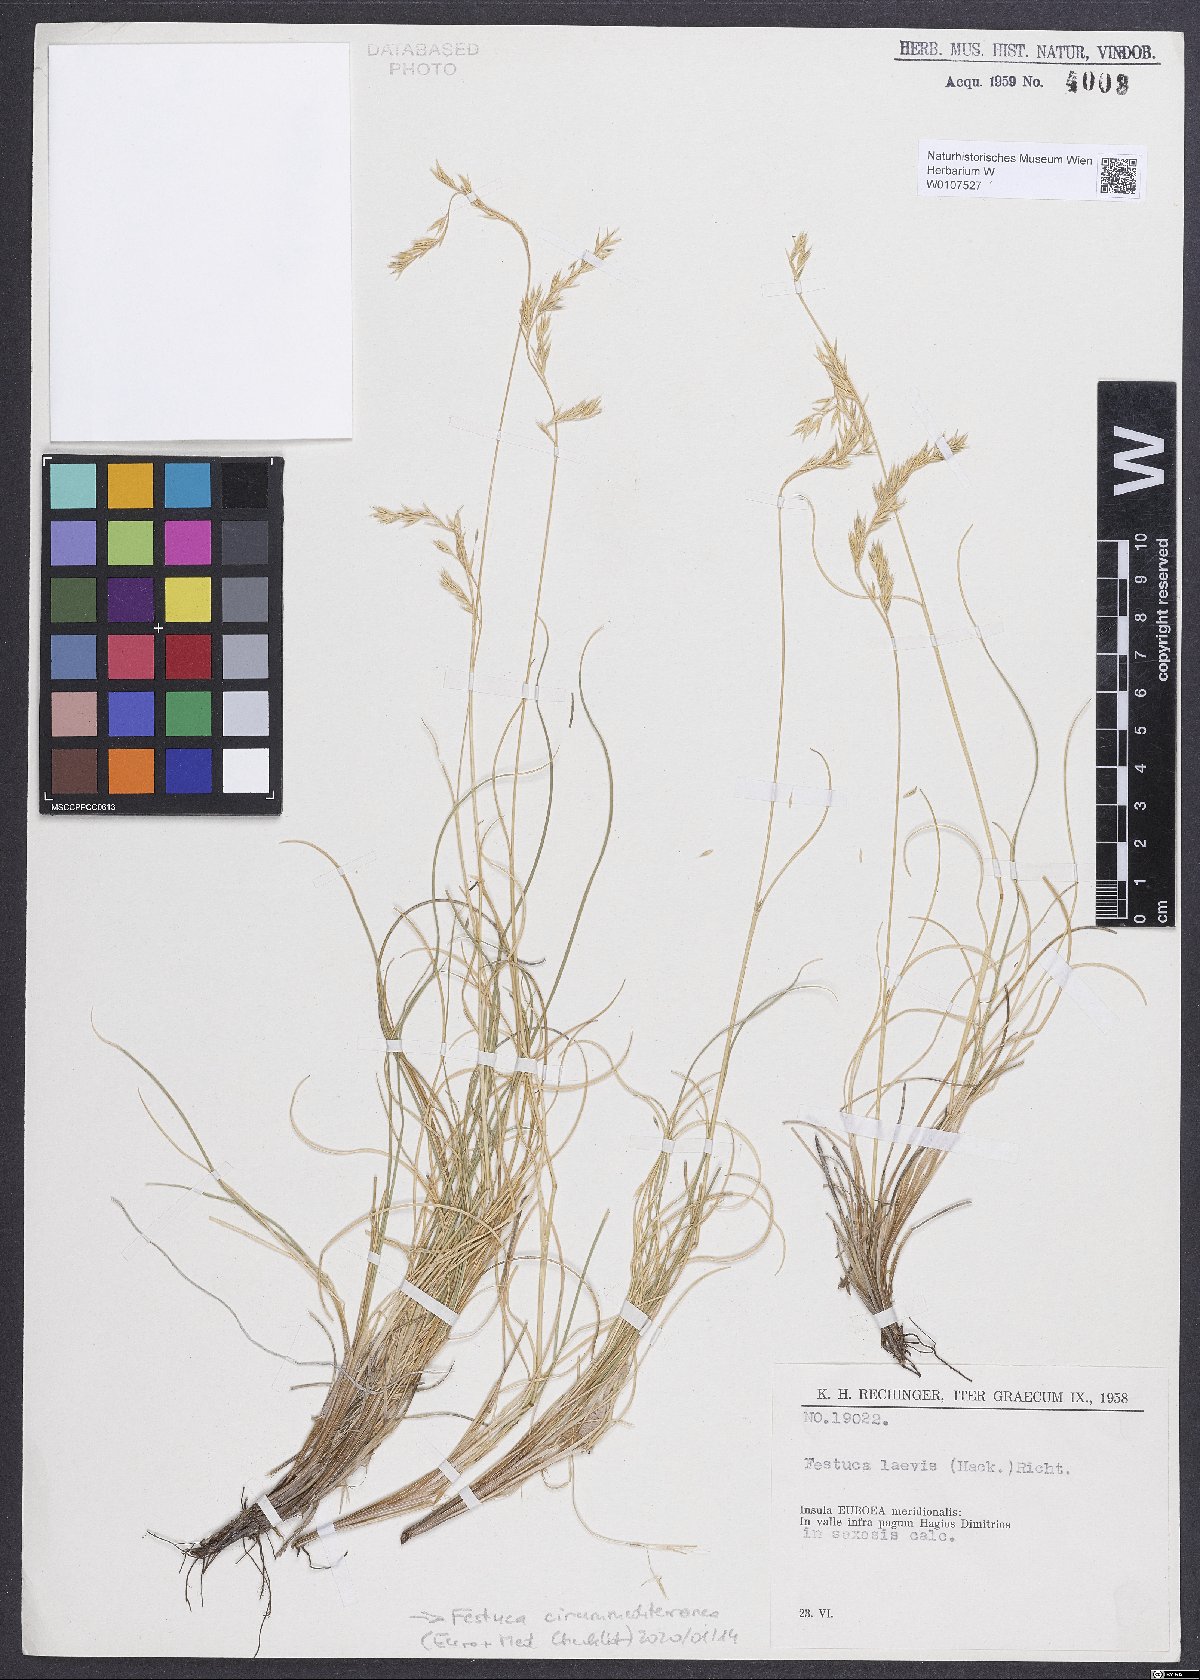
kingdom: Plantae
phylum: Tracheophyta
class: Liliopsida
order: Poales
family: Poaceae
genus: Festuca
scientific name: Festuca circummediterranea
